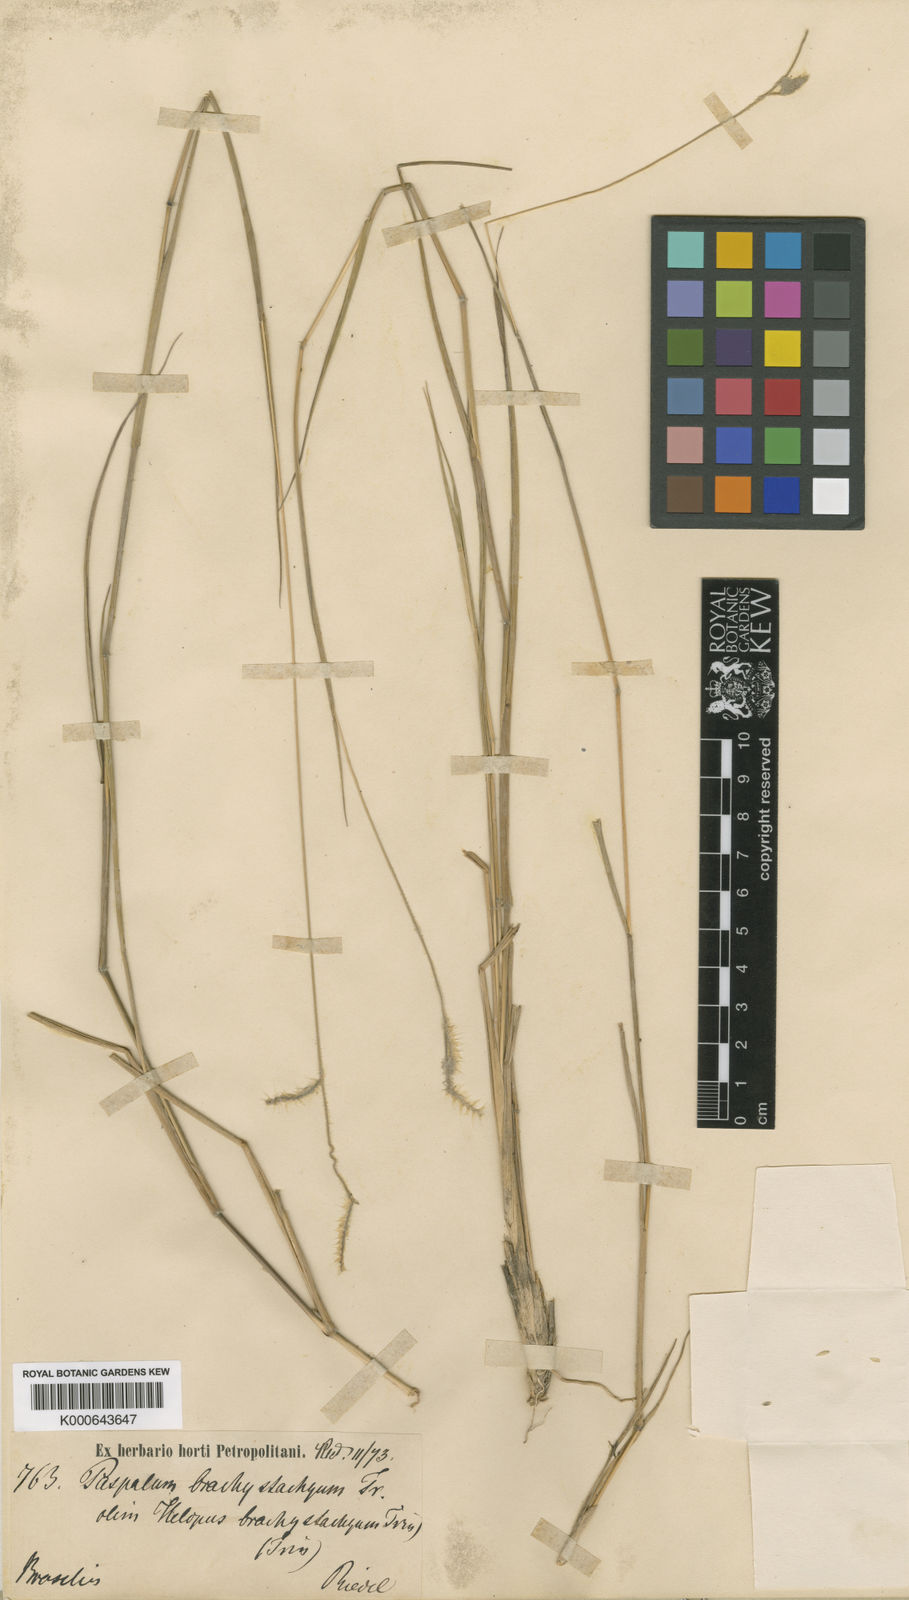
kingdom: Plantae
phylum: Tracheophyta
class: Liliopsida
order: Poales
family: Poaceae
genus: Eriochloa
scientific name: Eriochloa distachya
